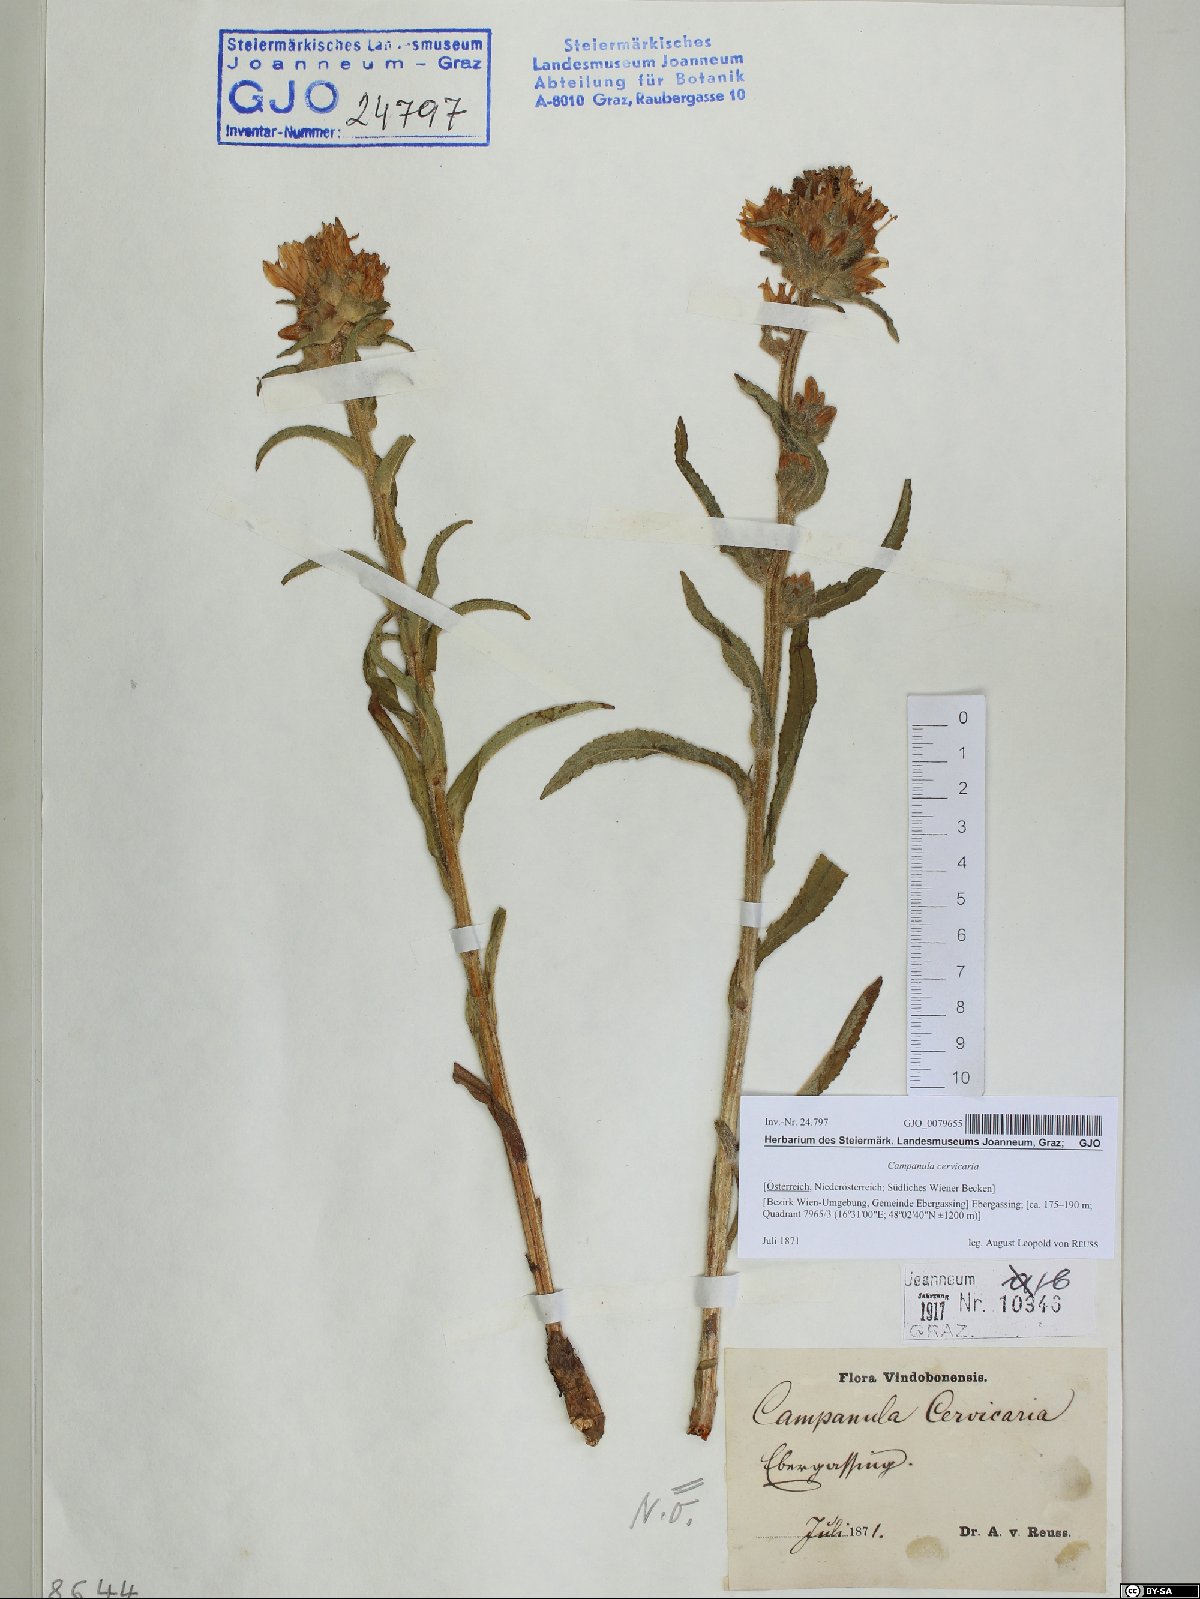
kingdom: Plantae
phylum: Tracheophyta
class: Magnoliopsida
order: Asterales
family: Campanulaceae
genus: Campanula
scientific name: Campanula cervicaria
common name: Bristly bellflower
